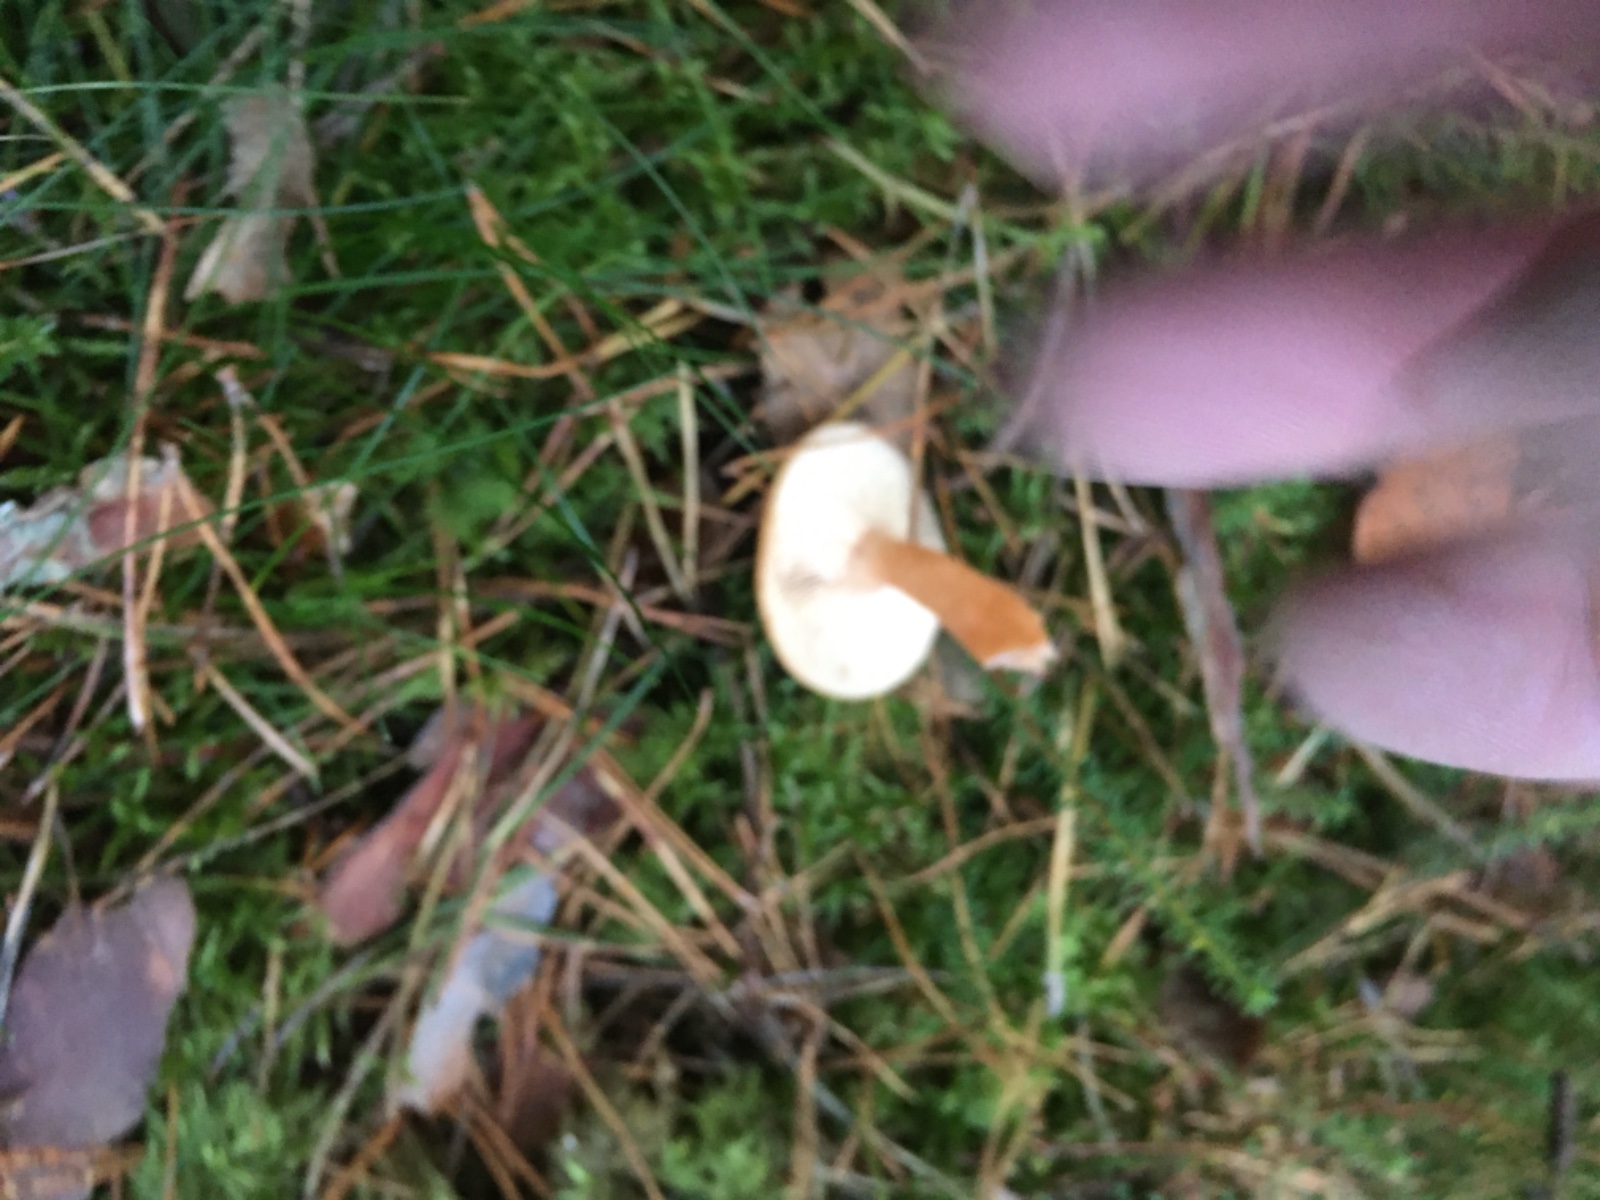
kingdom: Fungi
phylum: Basidiomycota
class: Agaricomycetes
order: Russulales
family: Russulaceae
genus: Lactarius
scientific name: Lactarius tabidus
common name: rynket mælkehat
